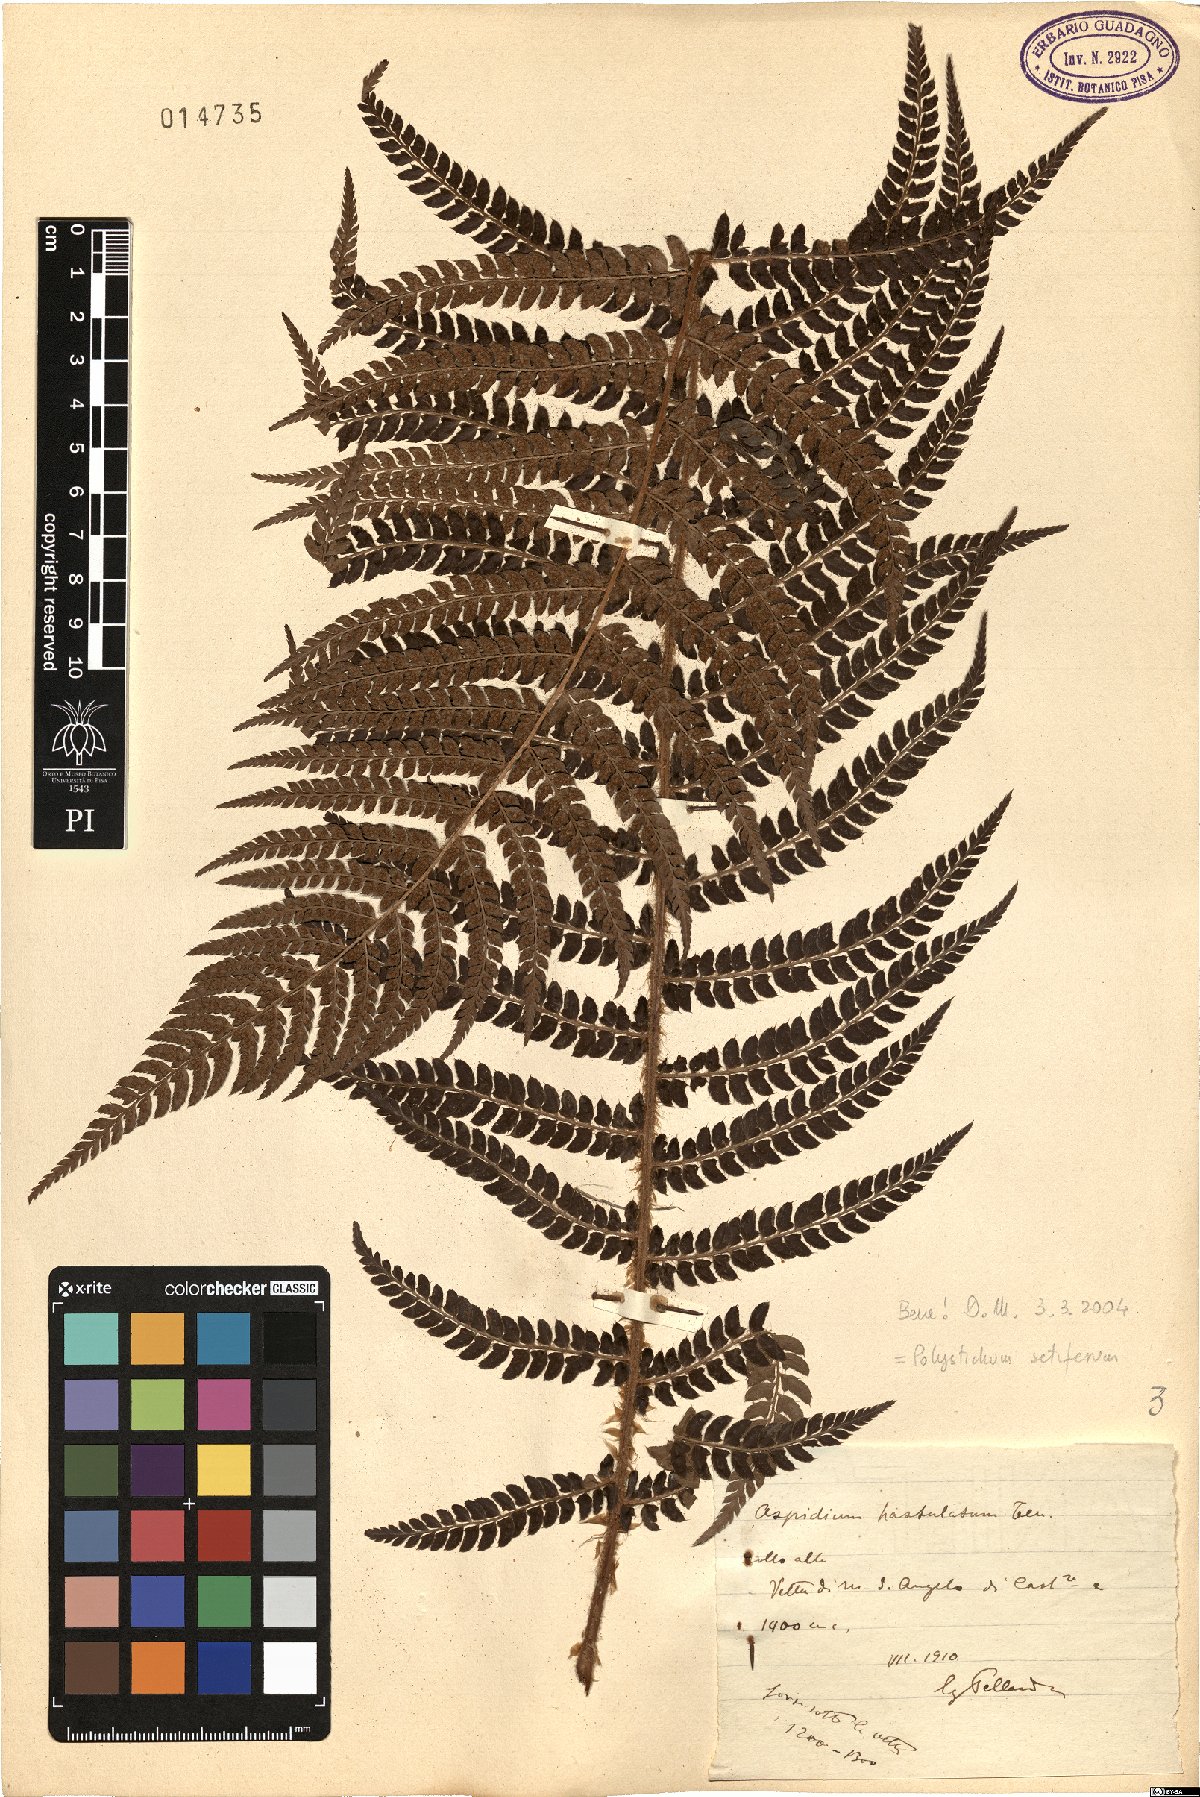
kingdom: Plantae
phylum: Tracheophyta
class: Polypodiopsida
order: Polypodiales
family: Dryopteridaceae
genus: Polystichum
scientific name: Polystichum setiferum
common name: Soft shield-fern
